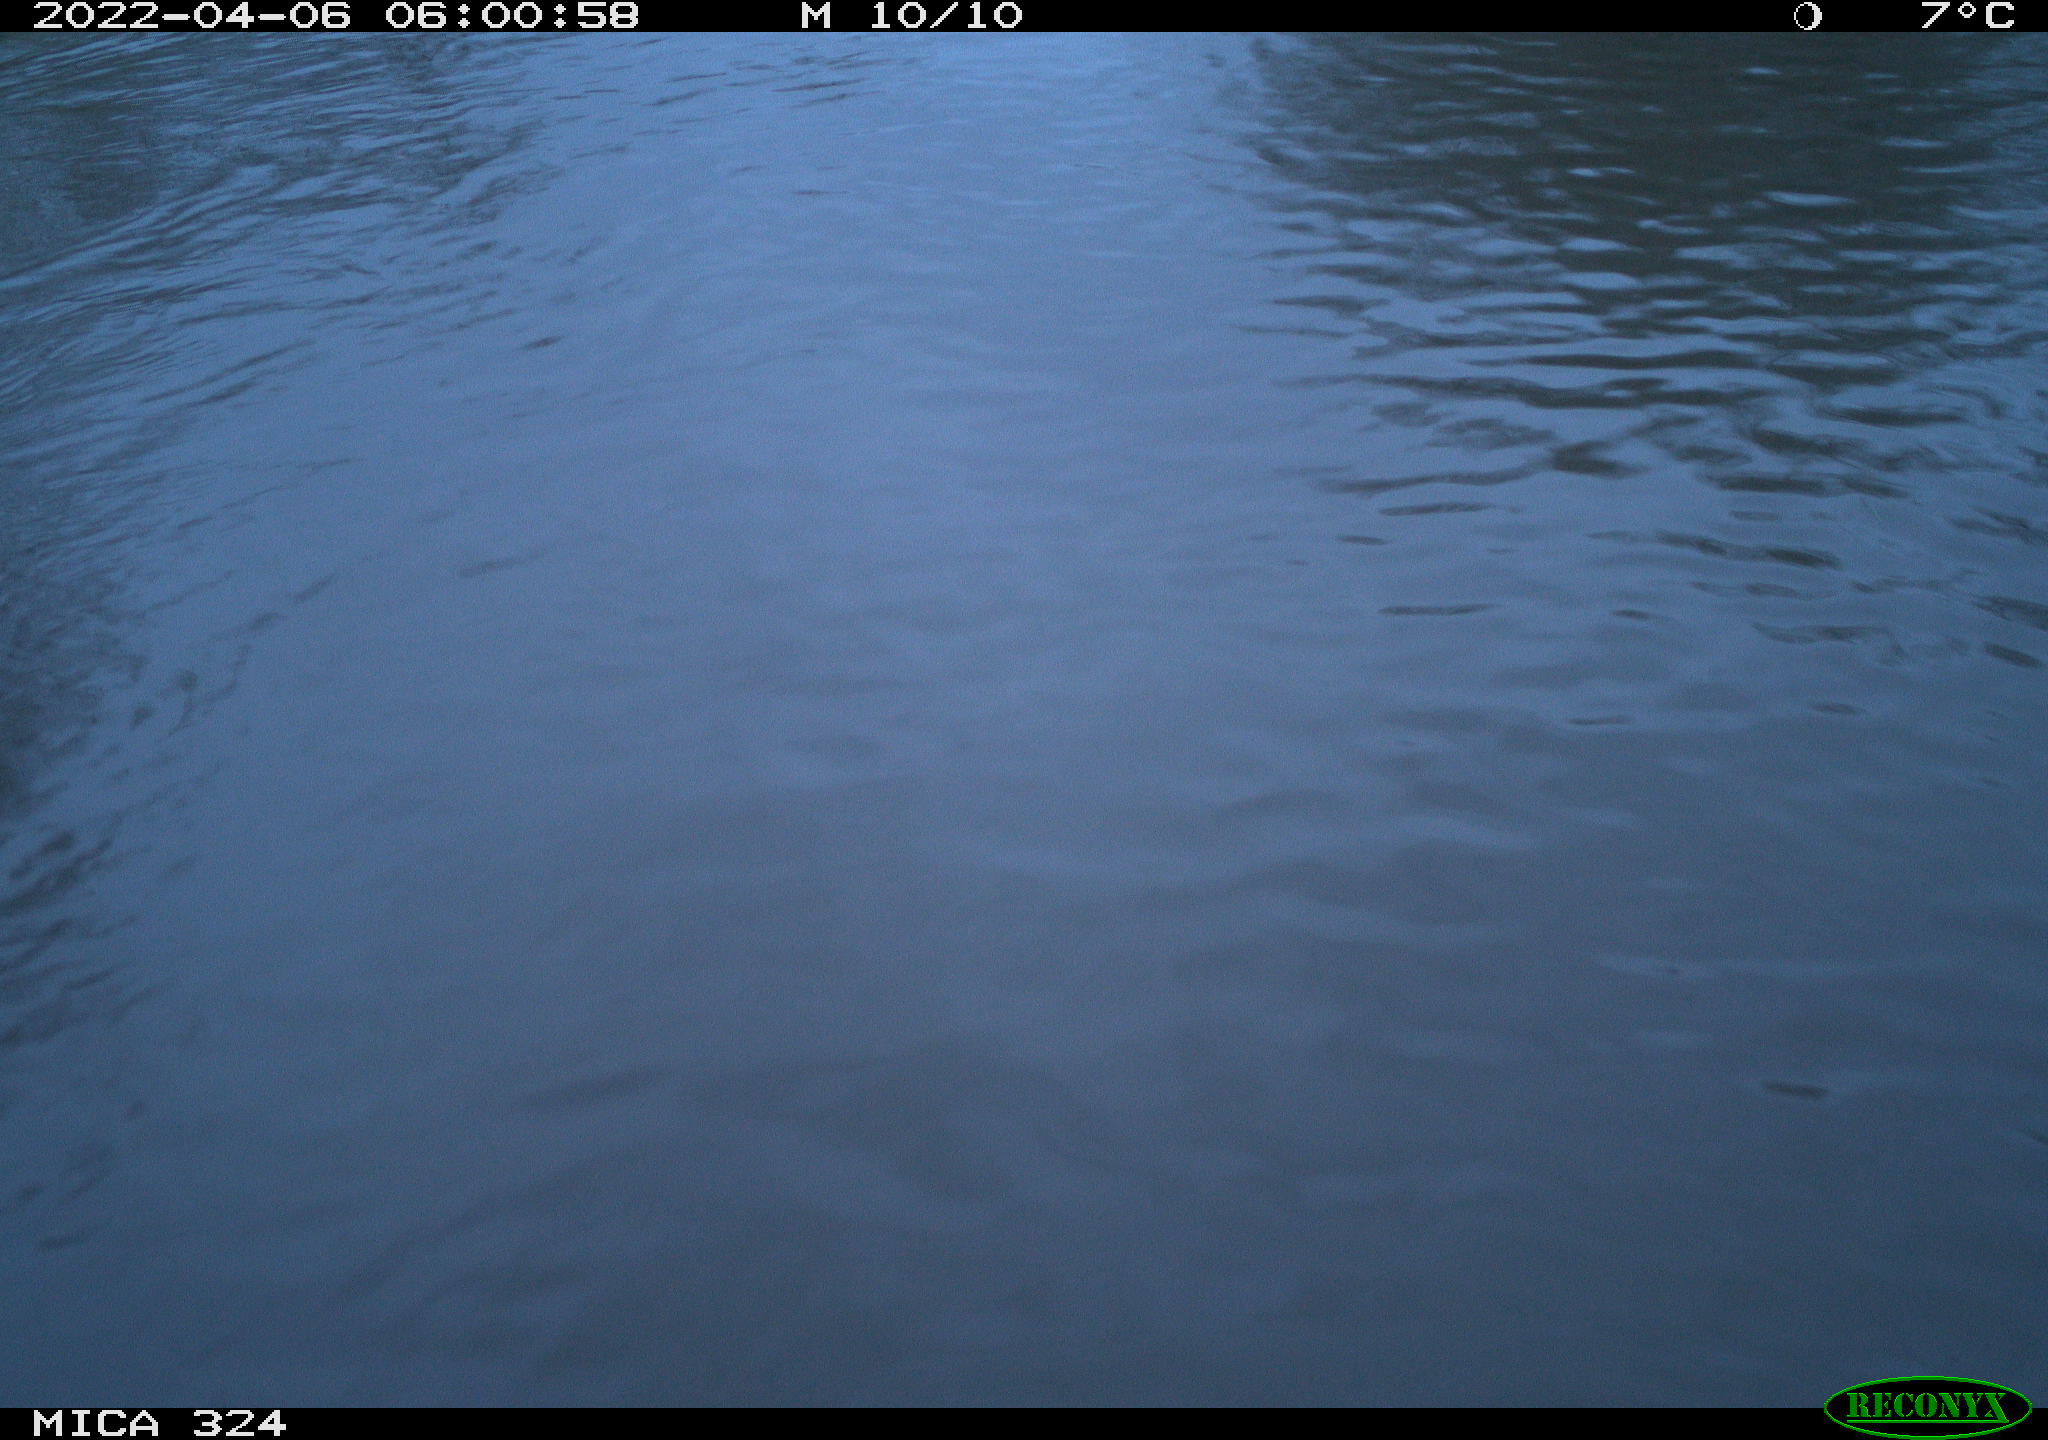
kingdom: Animalia
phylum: Chordata
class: Mammalia
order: Rodentia
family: Cricetidae
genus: Ondatra
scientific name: Ondatra zibethicus
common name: Muskrat
